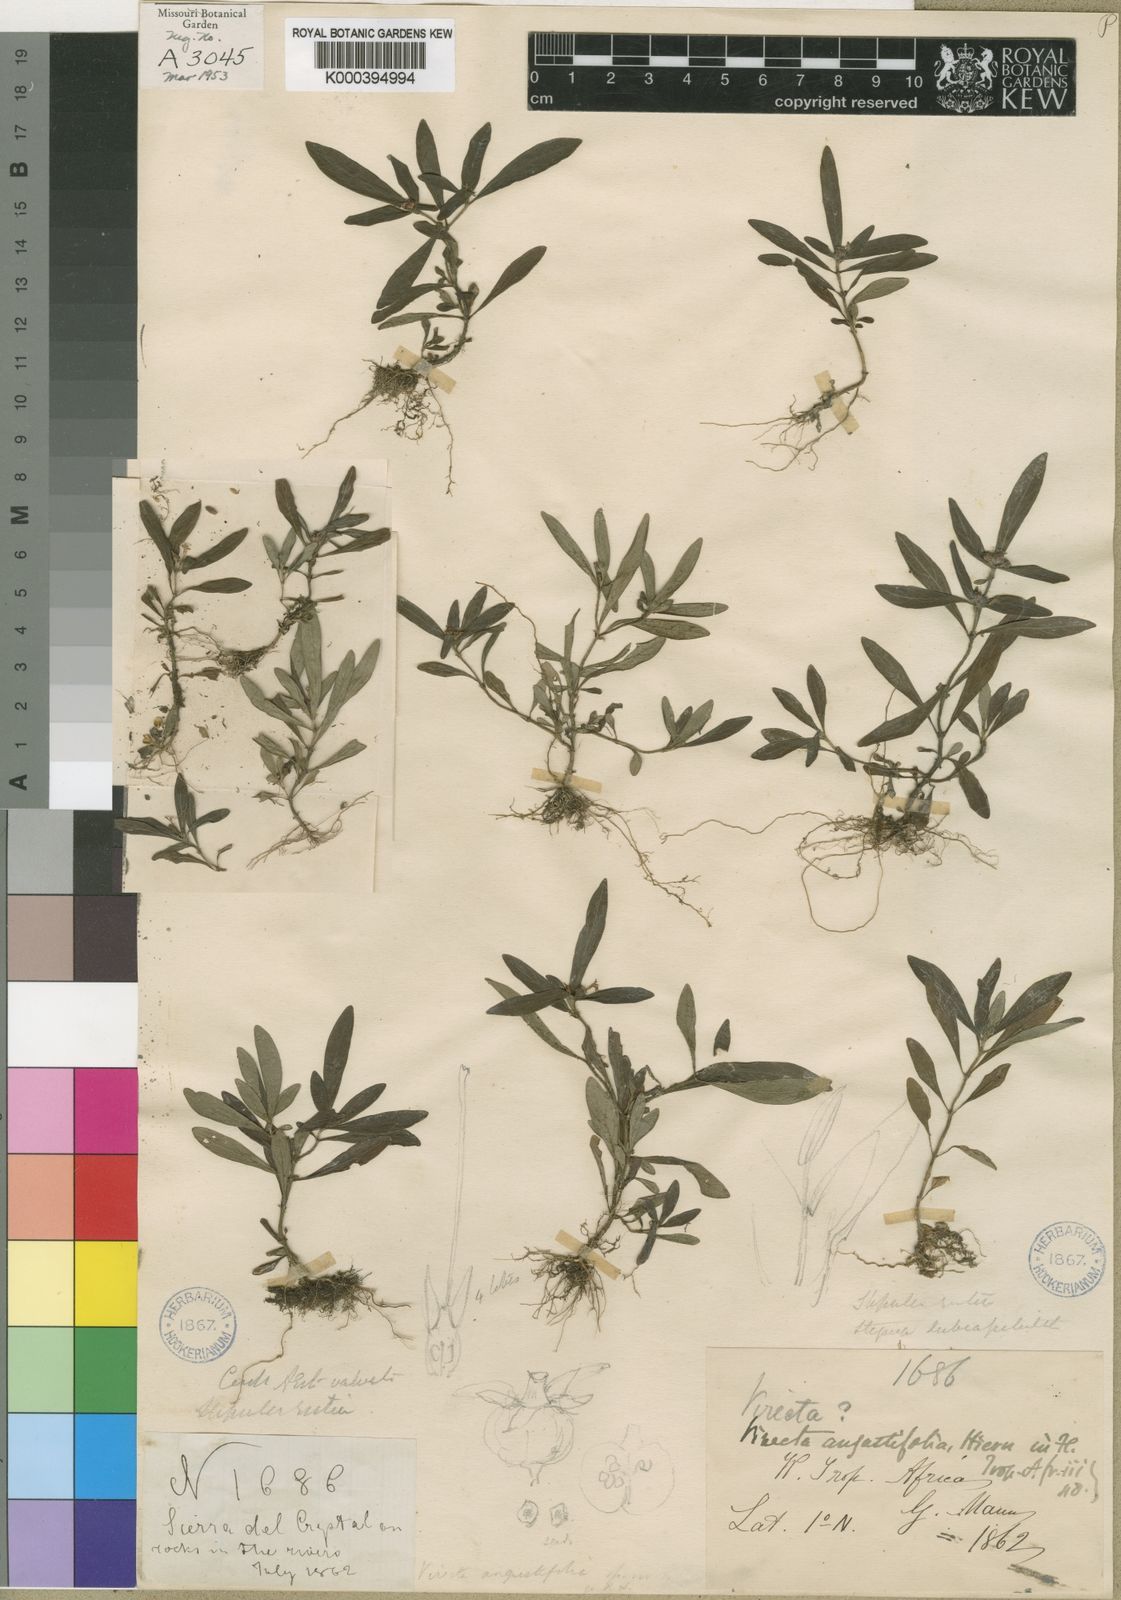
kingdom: Plantae
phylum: Tracheophyta
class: Magnoliopsida
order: Gentianales
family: Rubiaceae
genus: Virectaria
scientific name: Virectaria angustifolia
